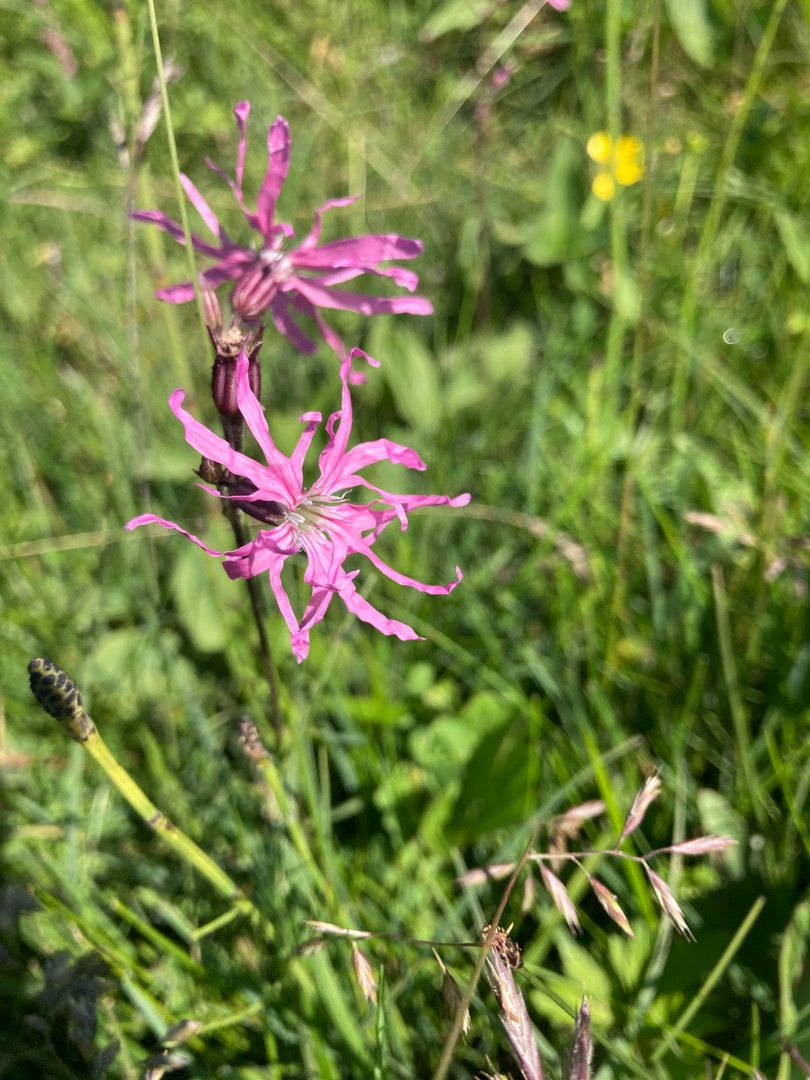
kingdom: Plantae
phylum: Tracheophyta
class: Magnoliopsida
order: Caryophyllales
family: Caryophyllaceae
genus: Silene
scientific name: Silene flos-cuculi
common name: Trævlekrone
